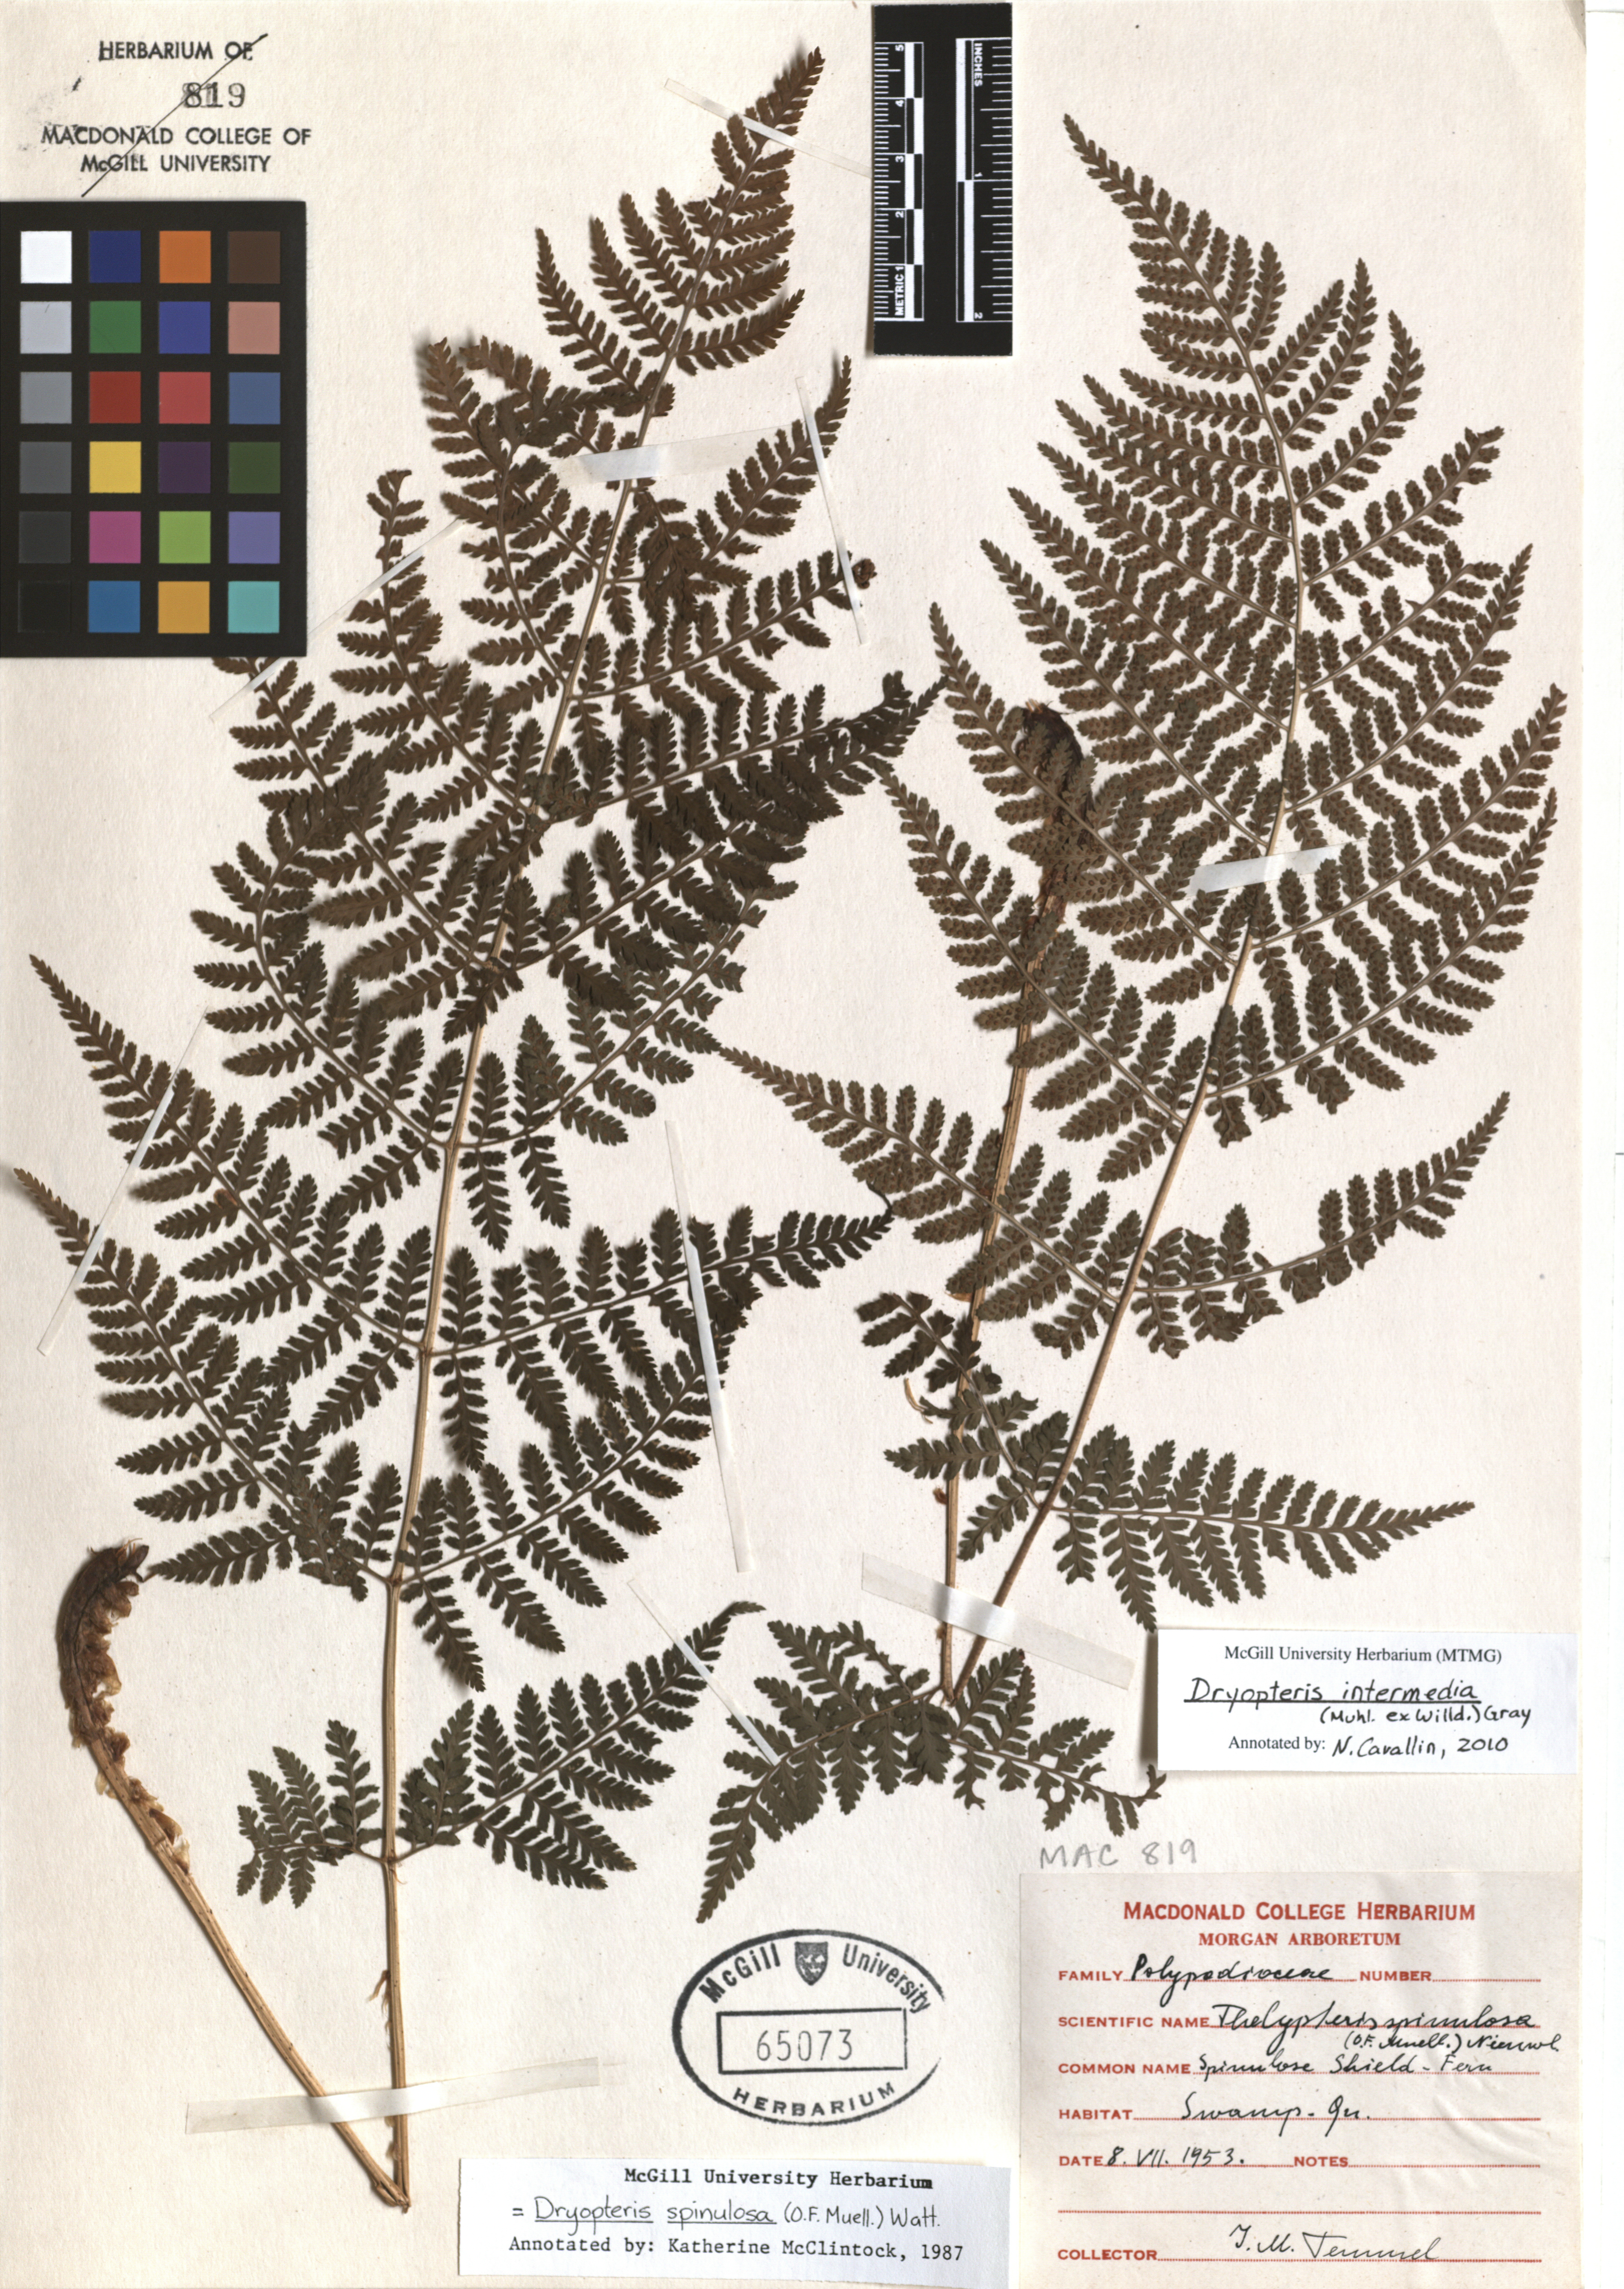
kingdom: Plantae
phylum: Tracheophyta
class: Polypodiopsida
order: Polypodiales
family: Dryopteridaceae
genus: Dryopteris
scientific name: Dryopteris intermedia
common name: Evergreen wood fern
